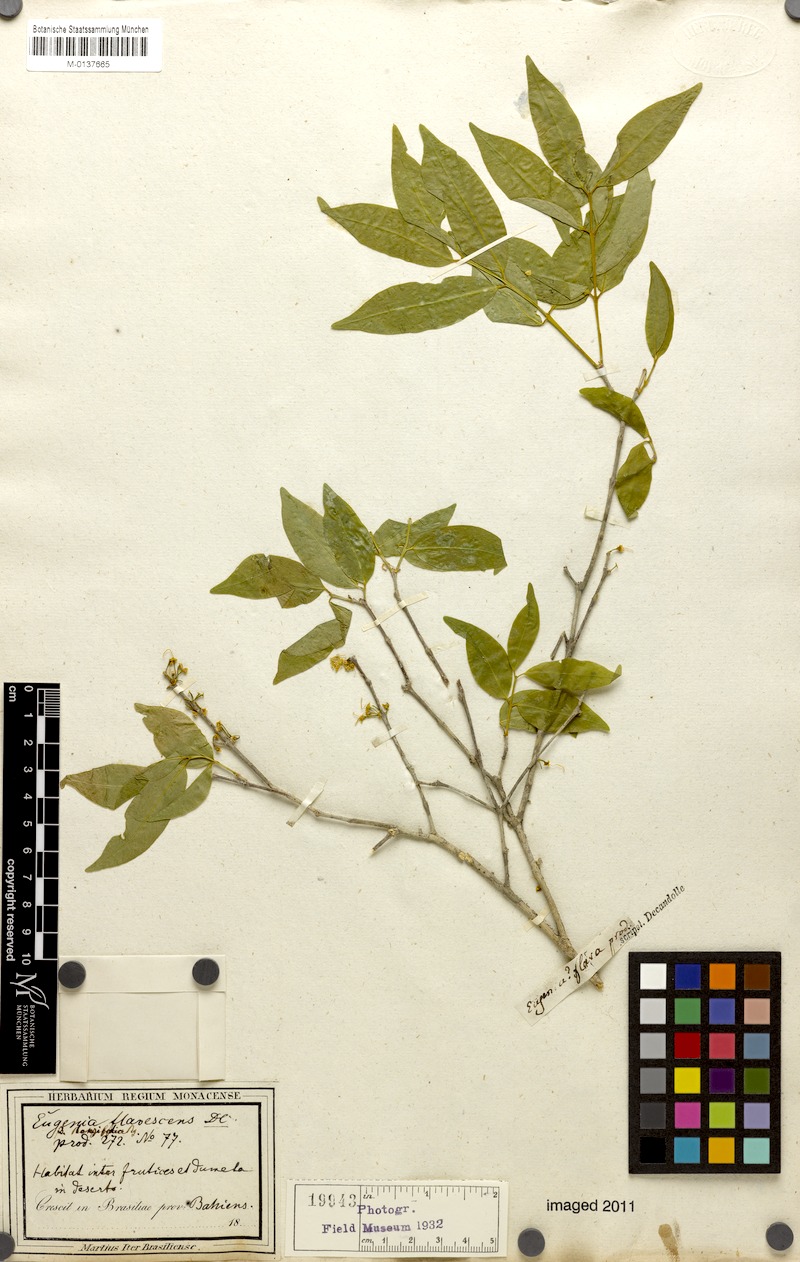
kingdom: Plantae
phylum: Tracheophyta
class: Magnoliopsida
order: Myrtales
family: Myrtaceae
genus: Eugenia
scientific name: Eugenia flavescens
